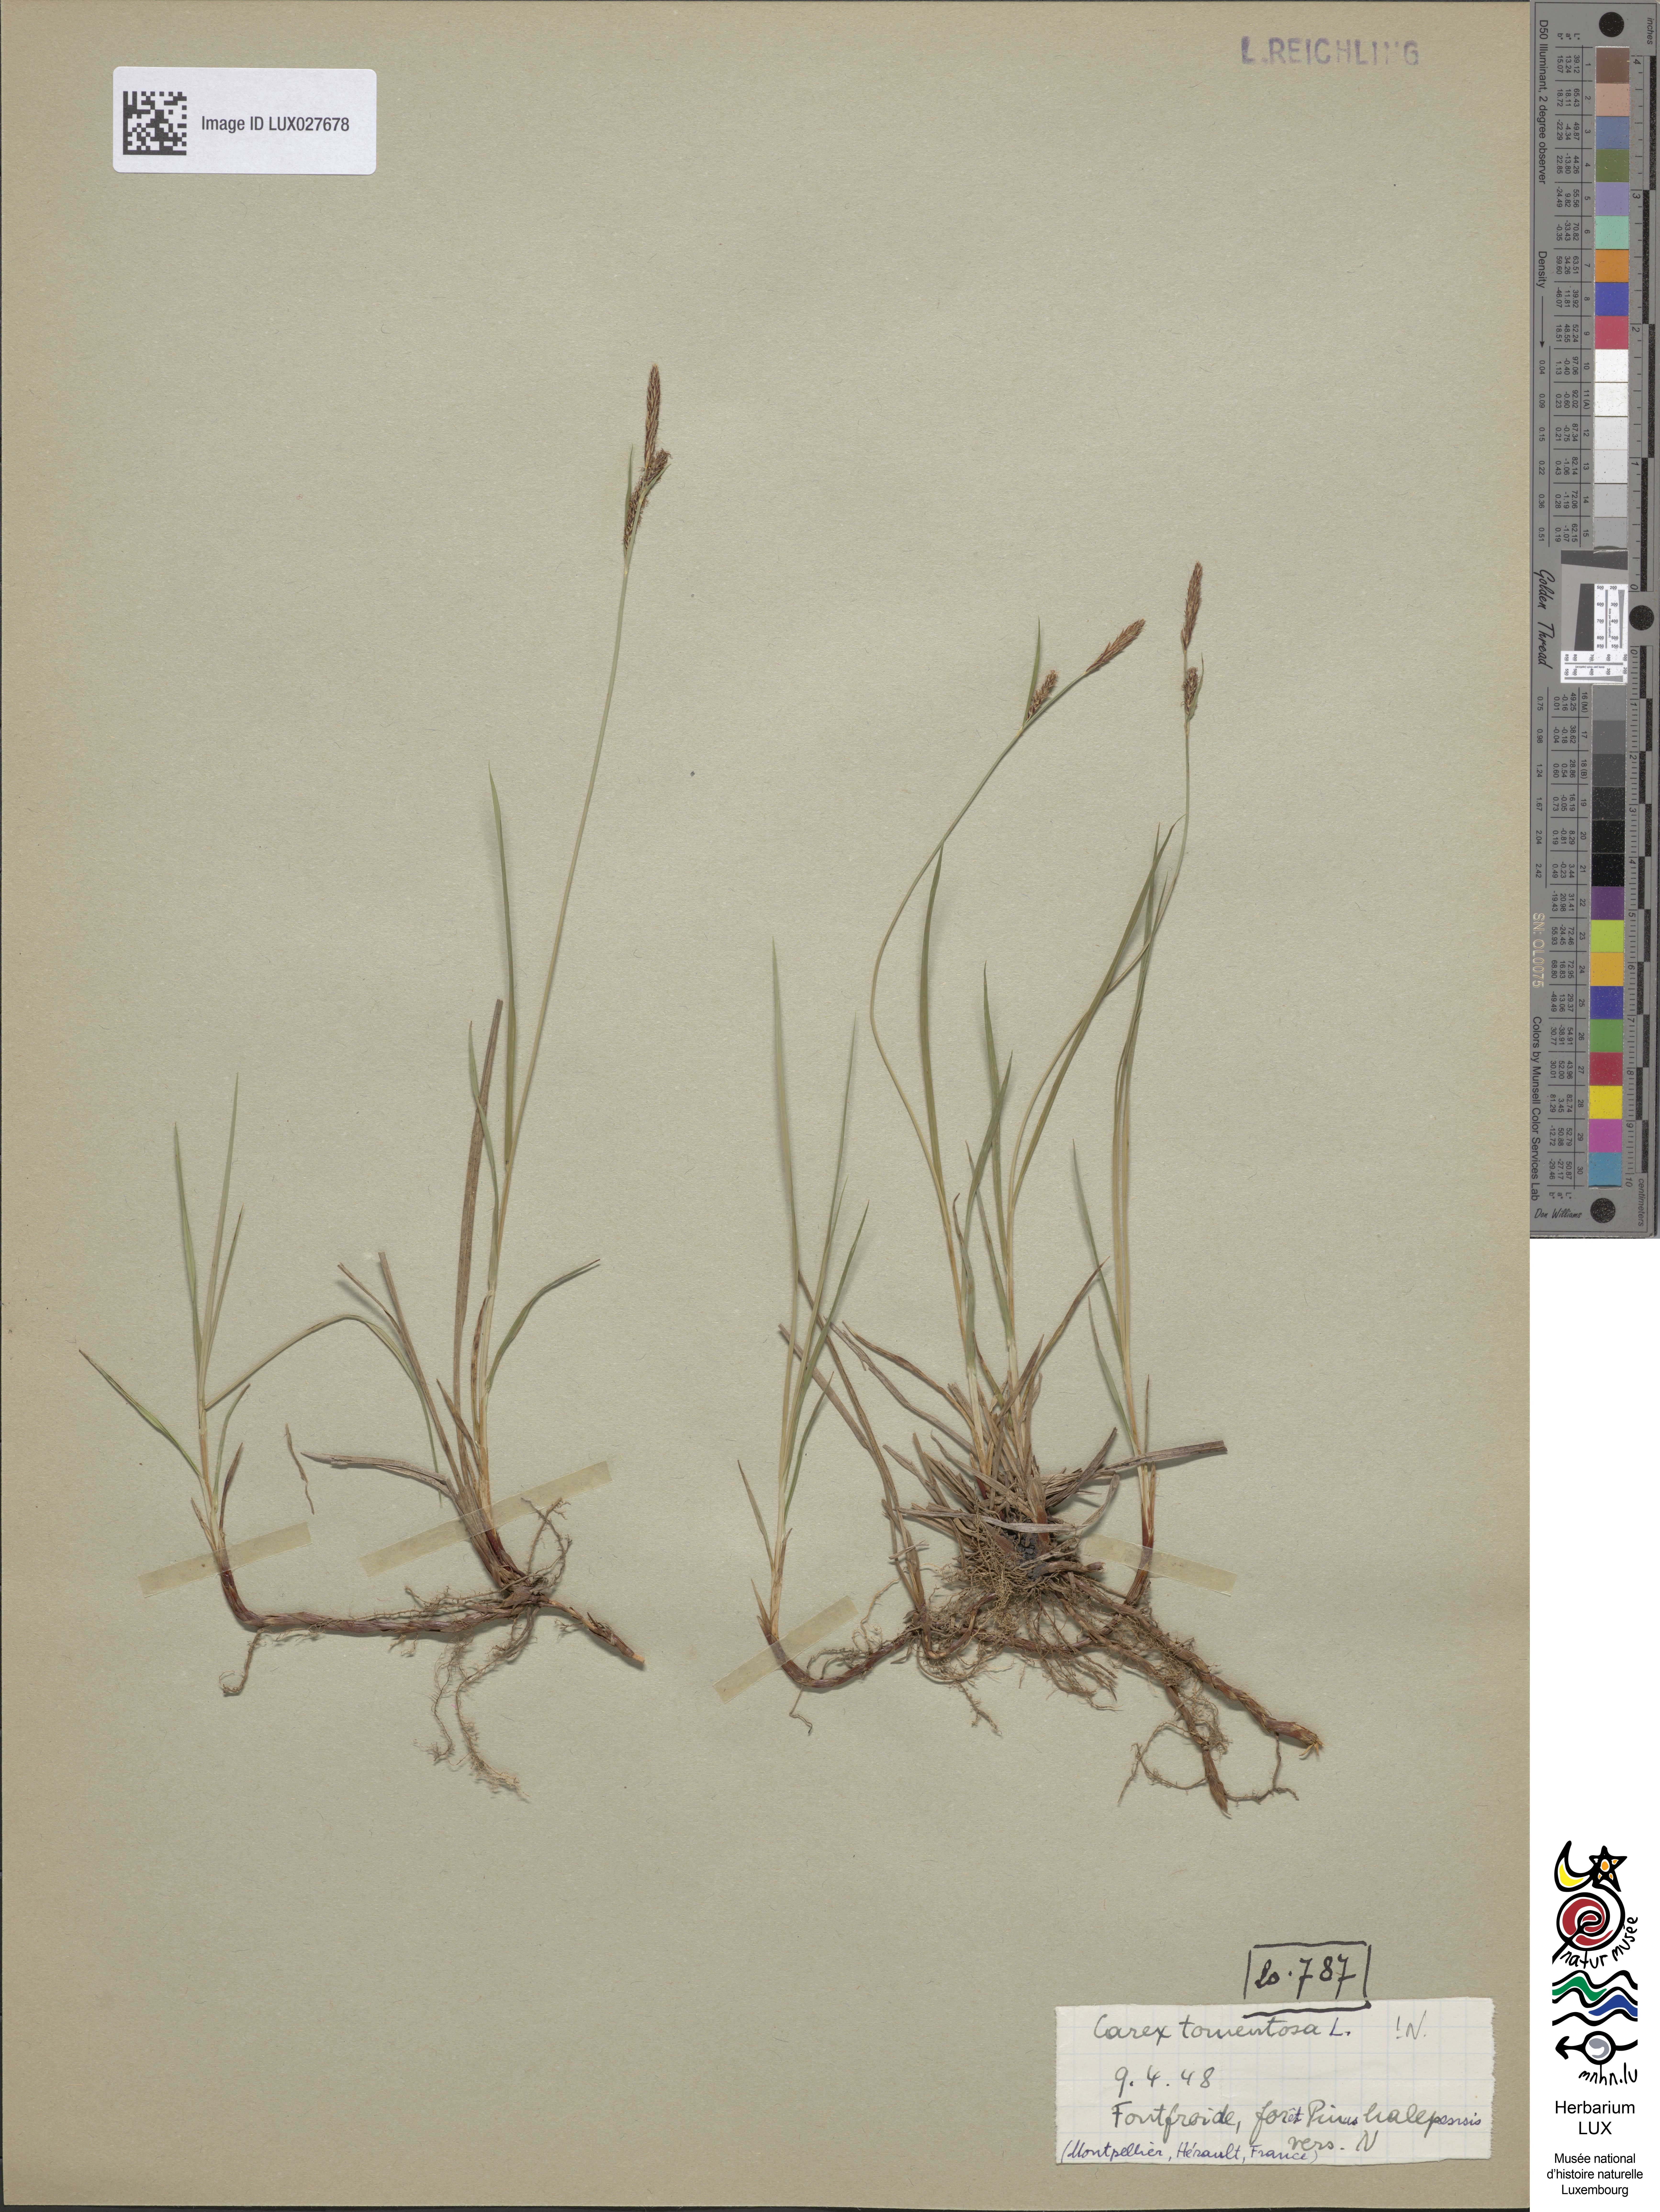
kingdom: Plantae
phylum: Tracheophyta
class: Liliopsida
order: Poales
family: Cyperaceae
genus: Carex
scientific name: Carex tomentosa
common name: Downy-fruited sedge
